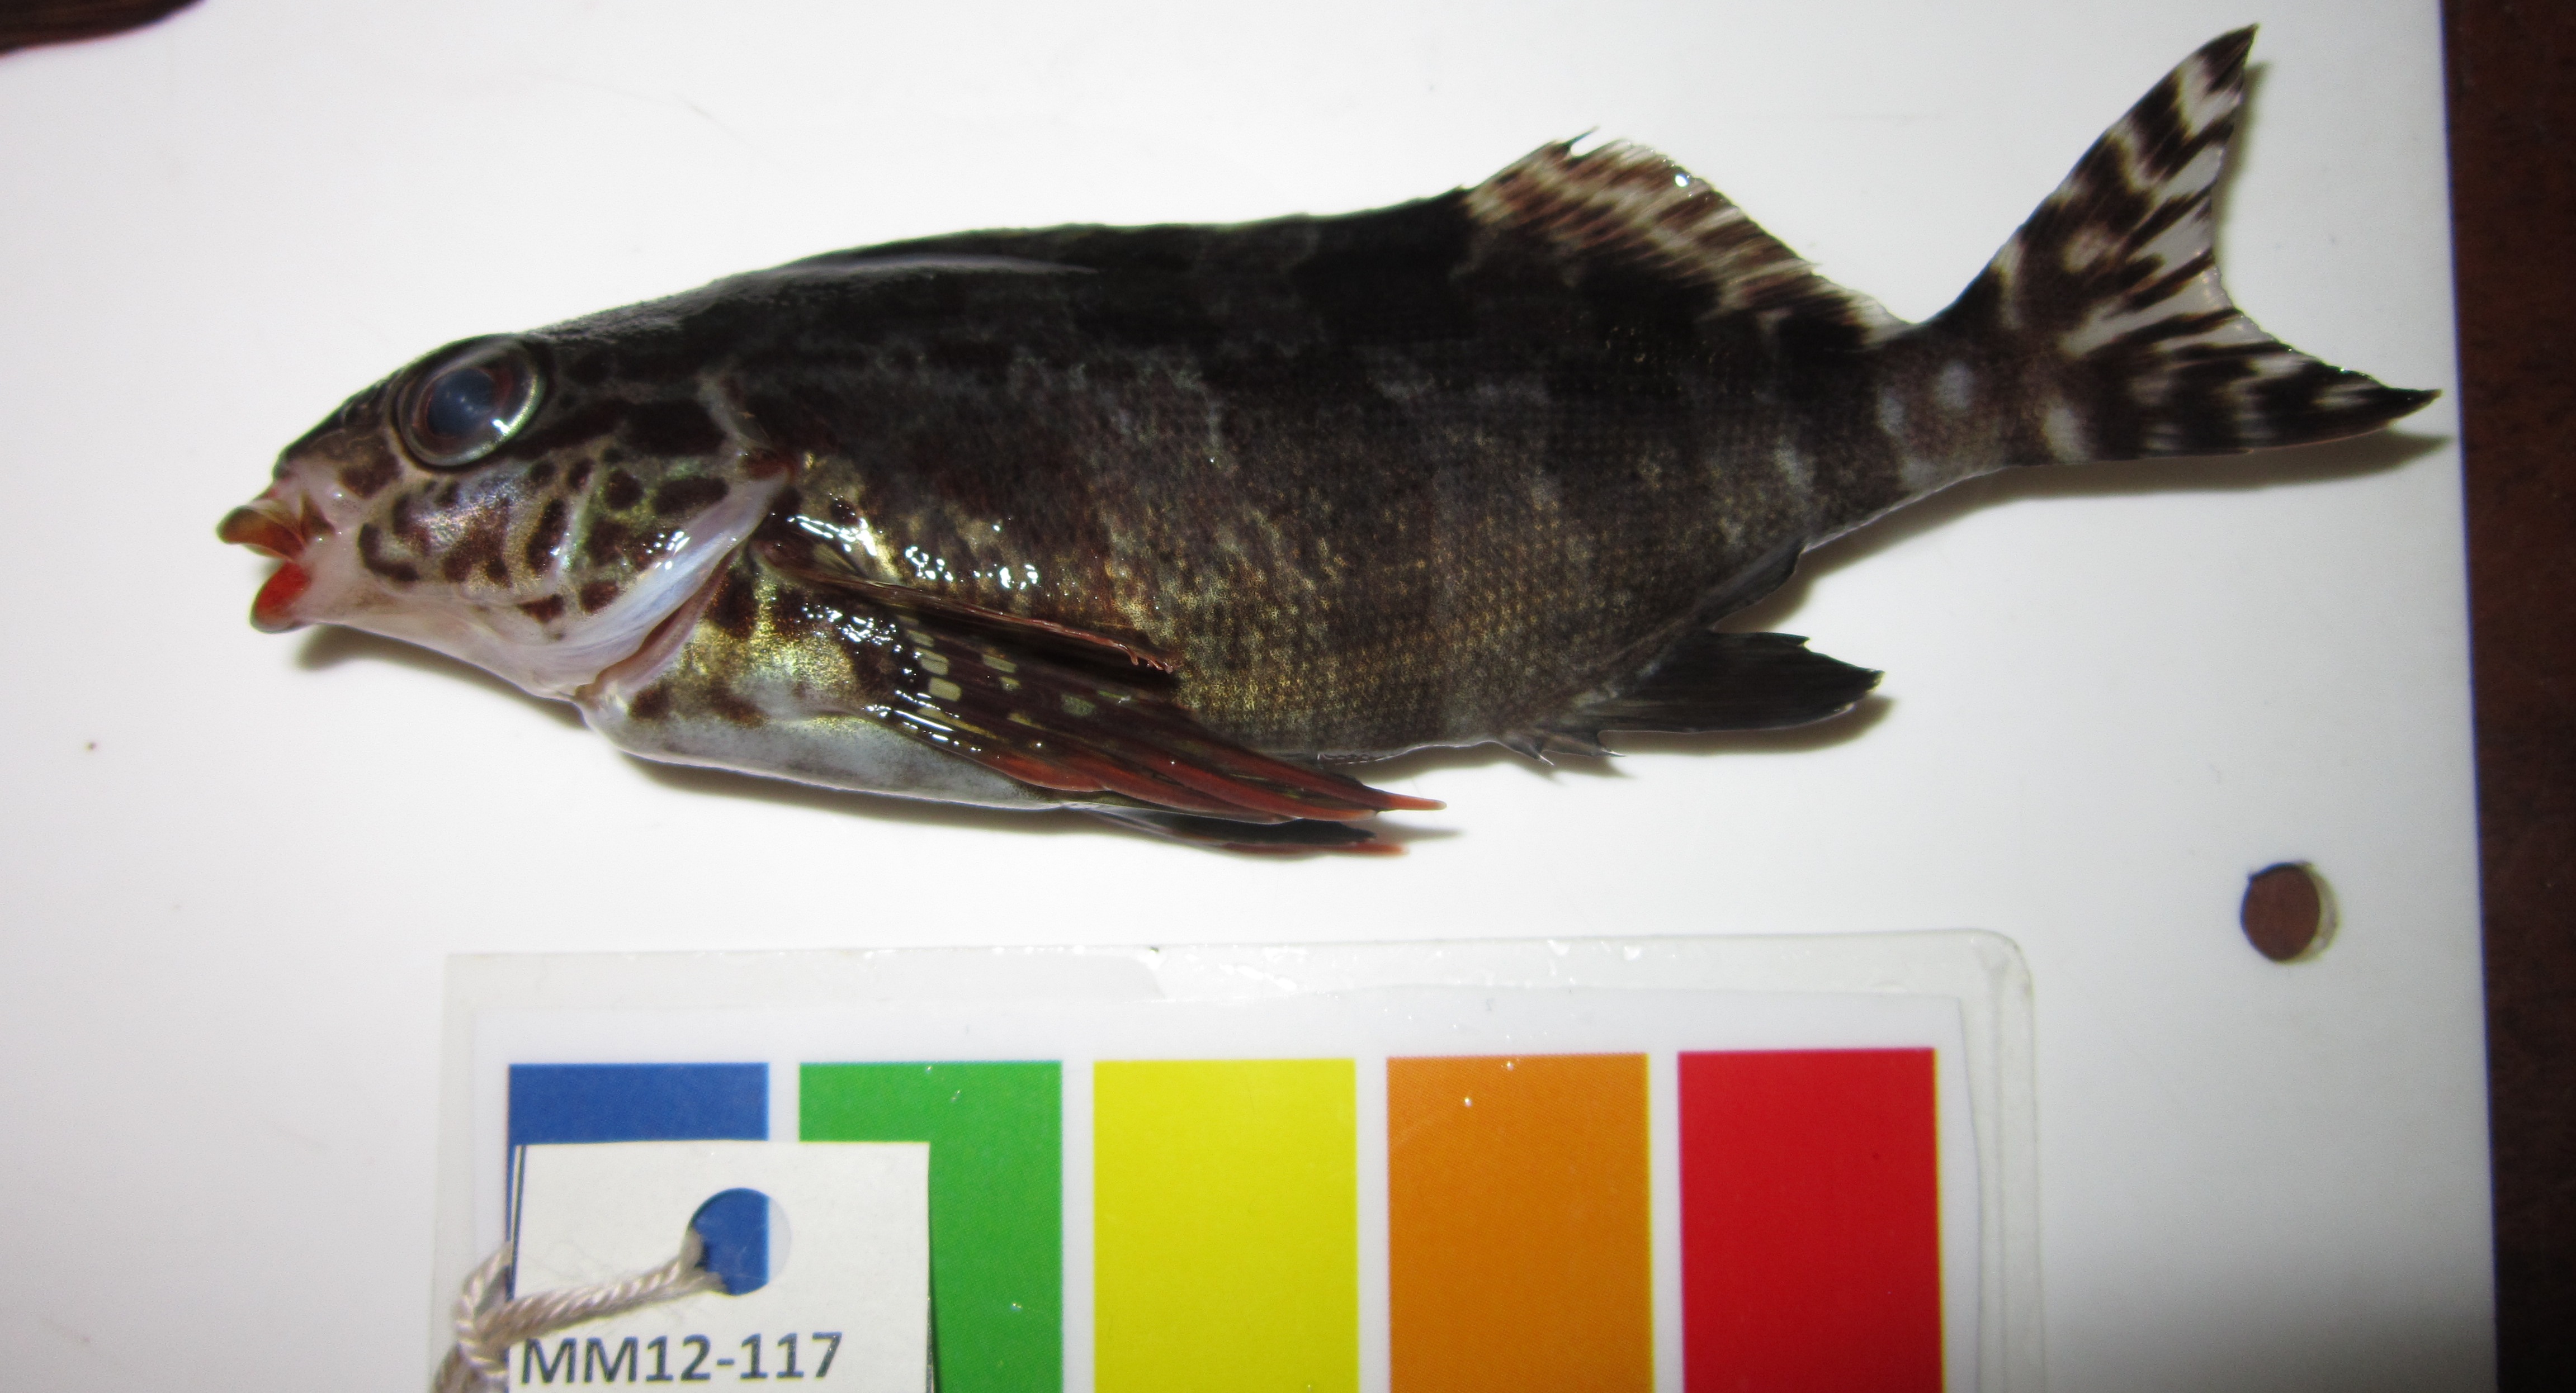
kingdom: Animalia
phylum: Chordata
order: Perciformes
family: Cheilodactylidae
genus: Cheilodactylus
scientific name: Cheilodactylus fasciatus
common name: Redfingers
